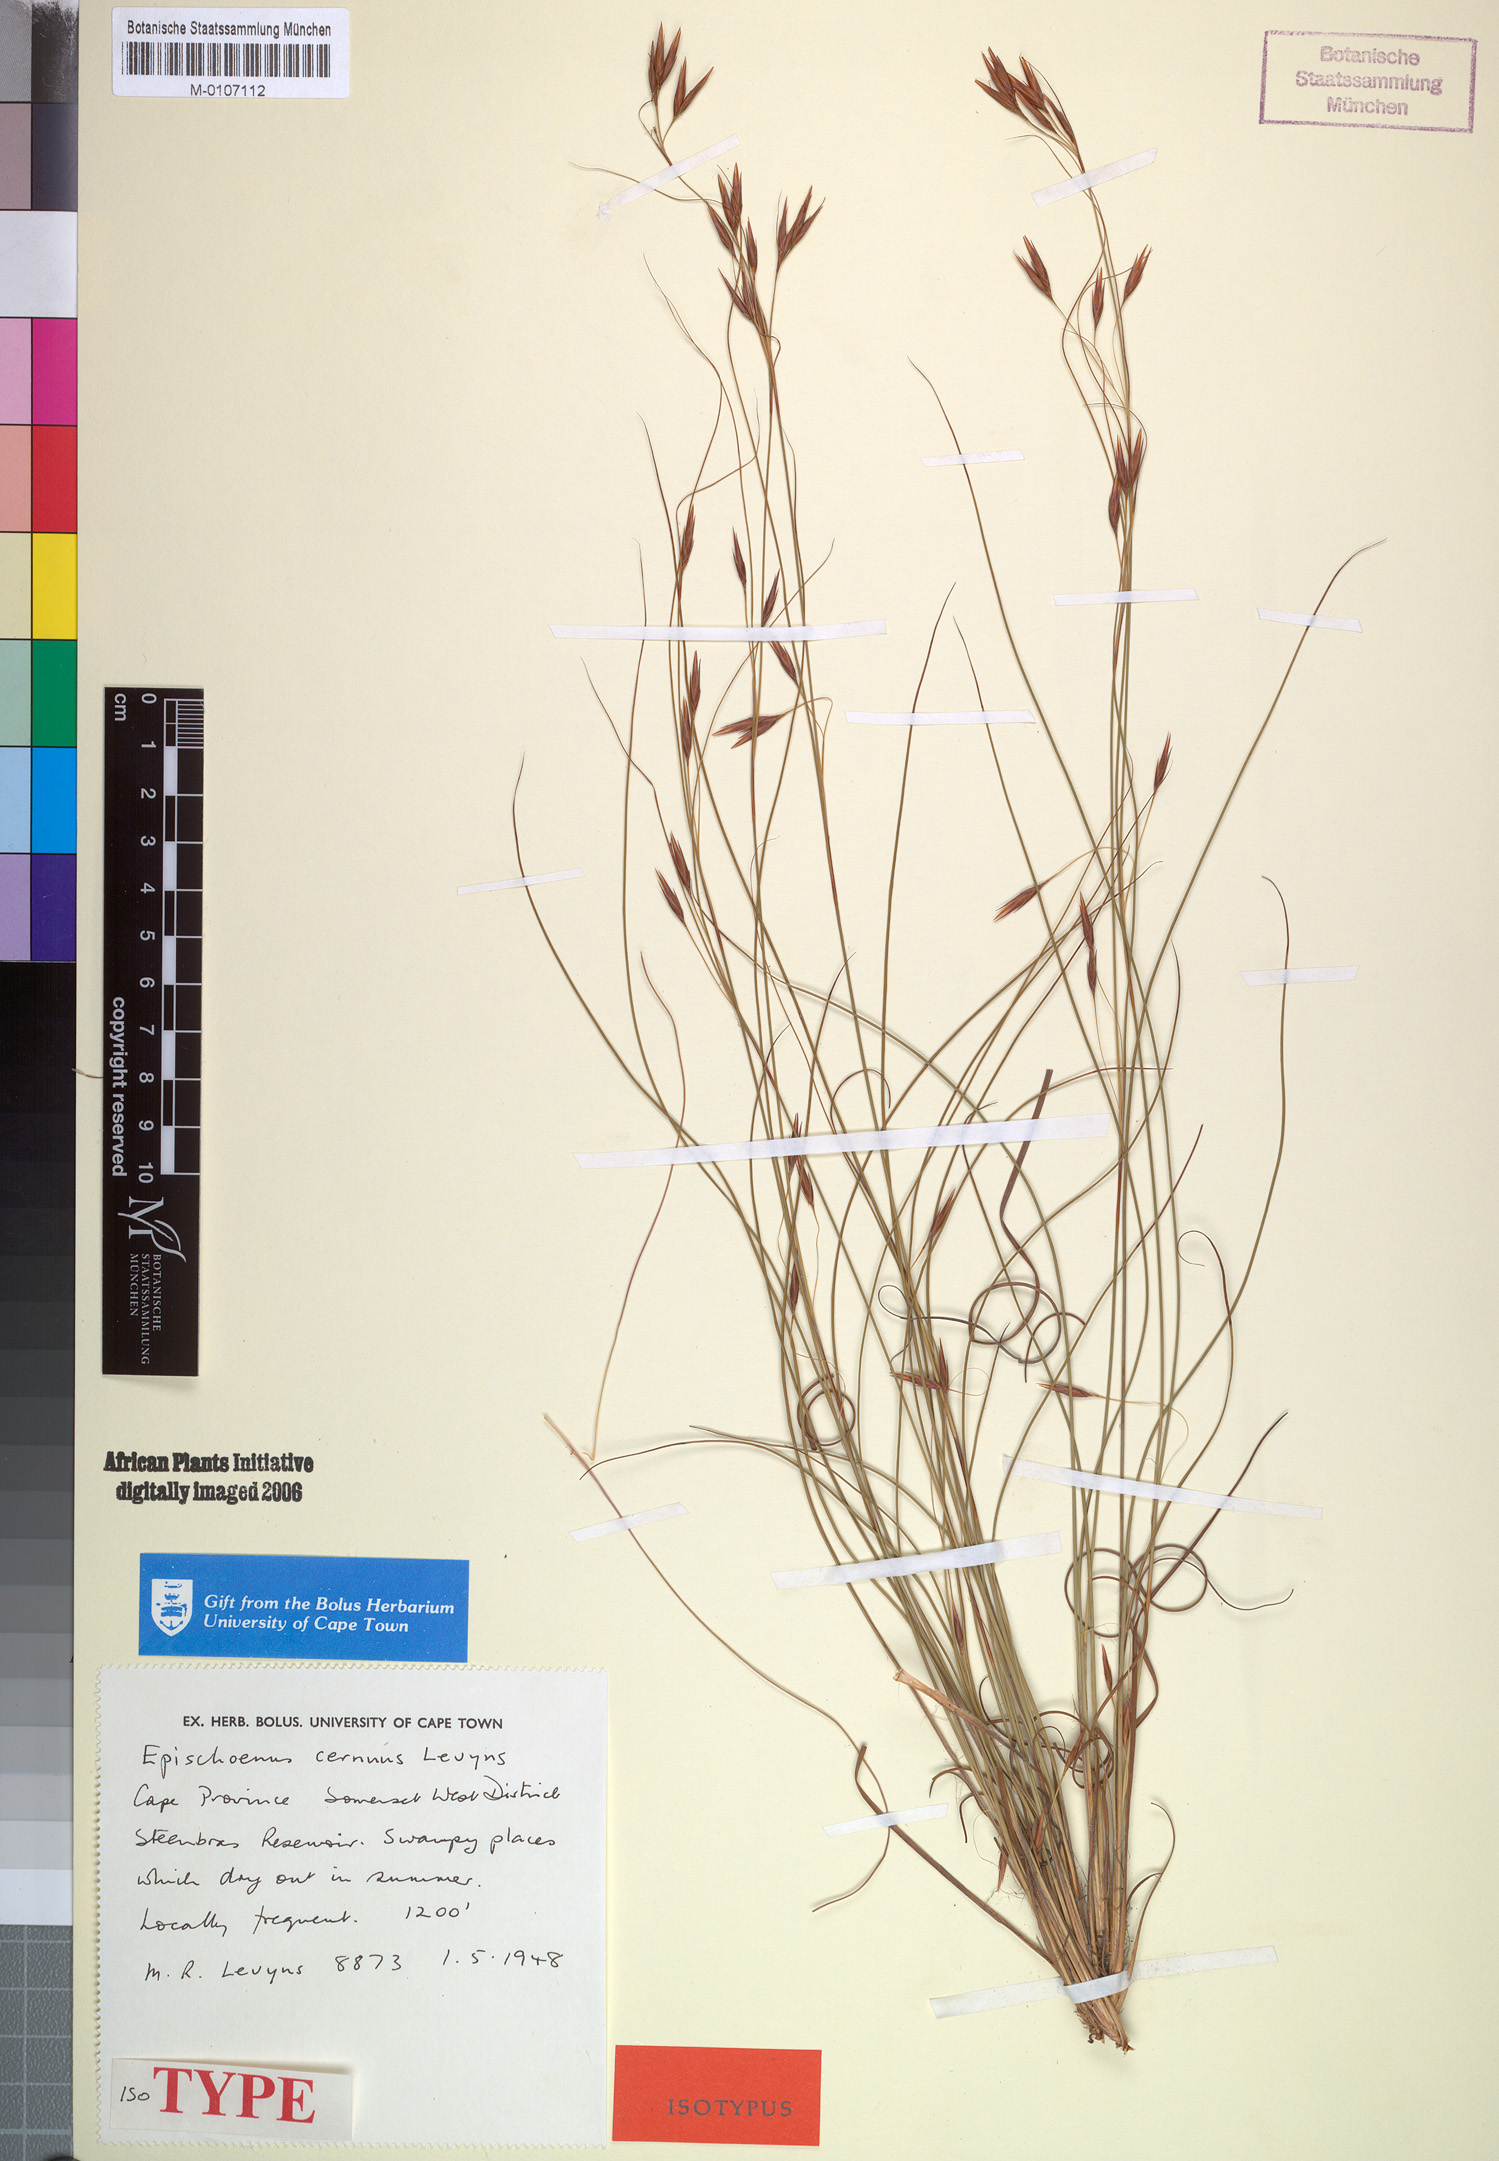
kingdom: Plantae
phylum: Tracheophyta
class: Liliopsida
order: Poales
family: Cyperaceae
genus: Tetraria
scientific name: Tetraria cernua
